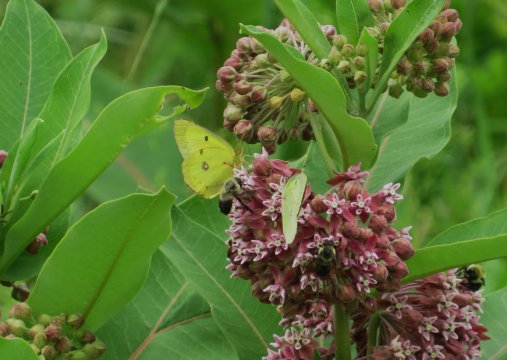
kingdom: Animalia
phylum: Arthropoda
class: Insecta
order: Lepidoptera
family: Pieridae
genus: Colias
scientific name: Colias philodice
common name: Clouded Sulphur
